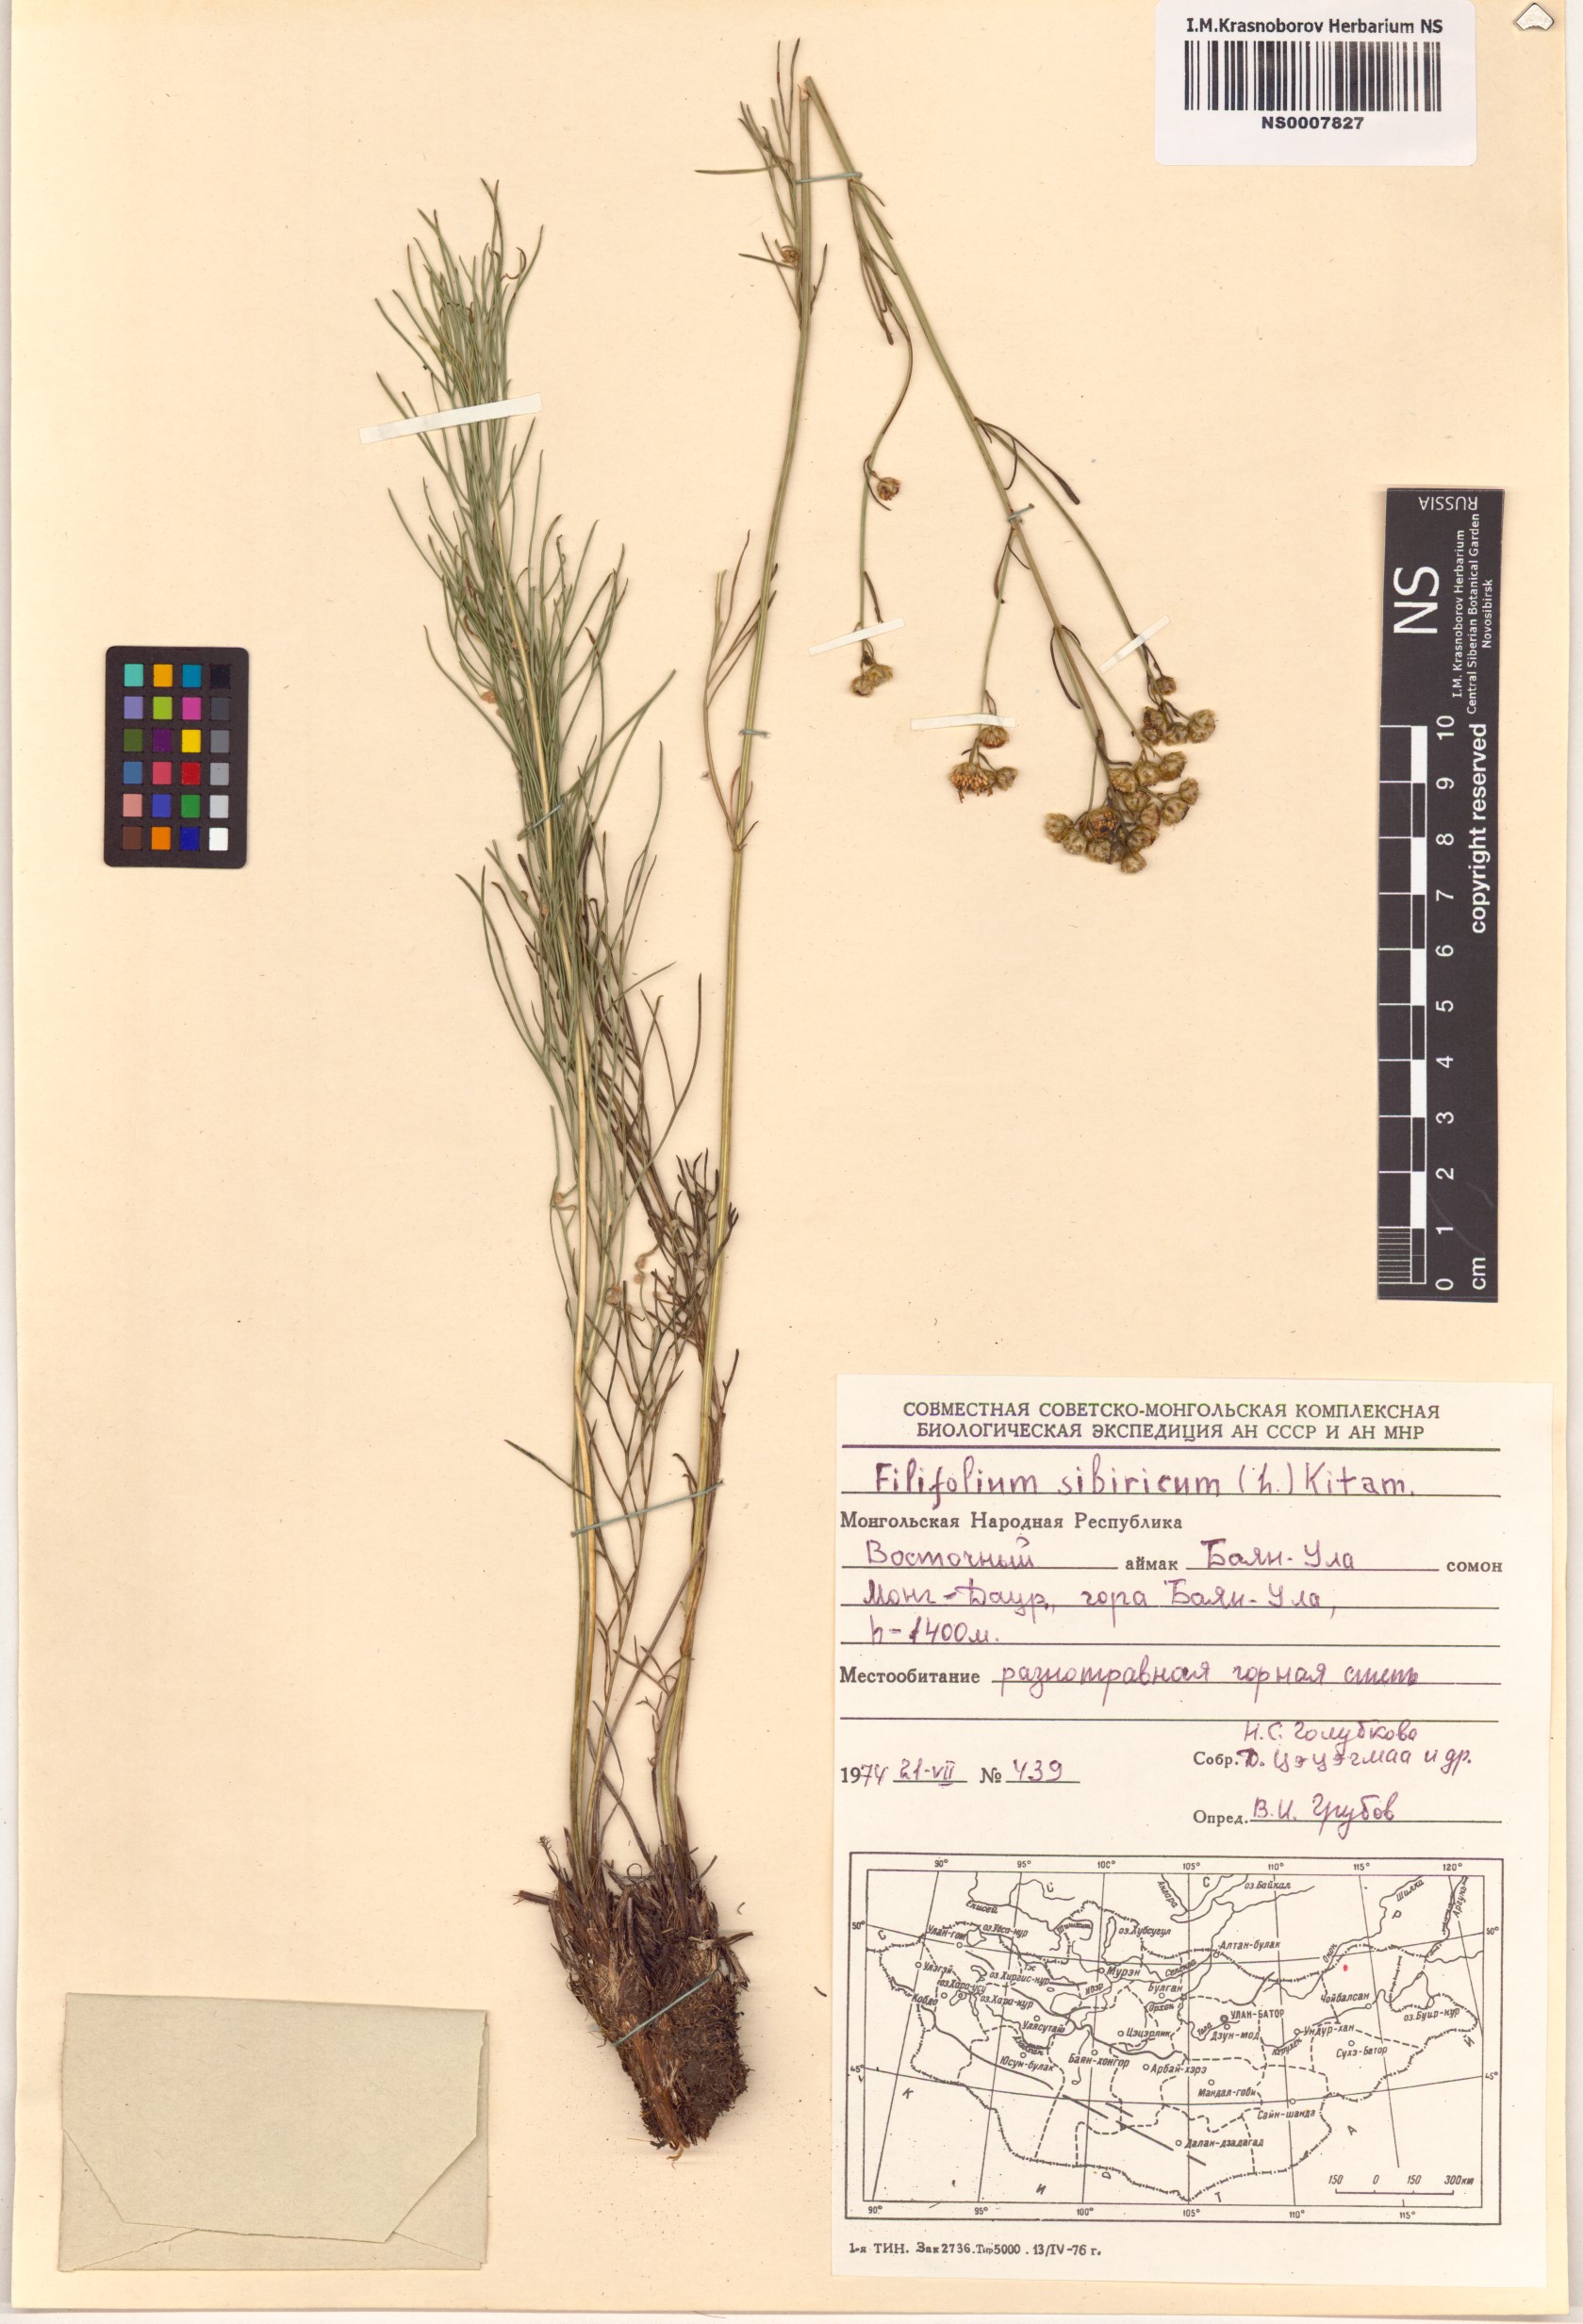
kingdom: Plantae
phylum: Tracheophyta
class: Magnoliopsida
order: Asterales
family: Asteraceae
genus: Filifolium
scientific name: Filifolium sibiricum
